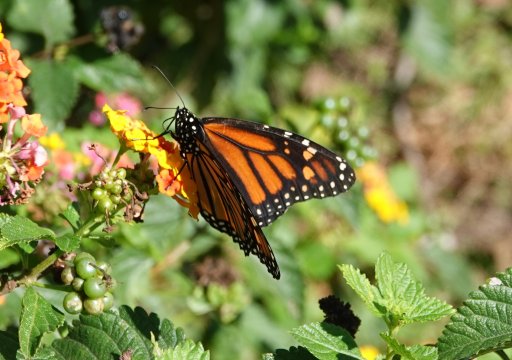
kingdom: Animalia
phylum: Arthropoda
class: Insecta
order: Lepidoptera
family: Nymphalidae
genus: Danaus
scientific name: Danaus plexippus
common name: Monarch
